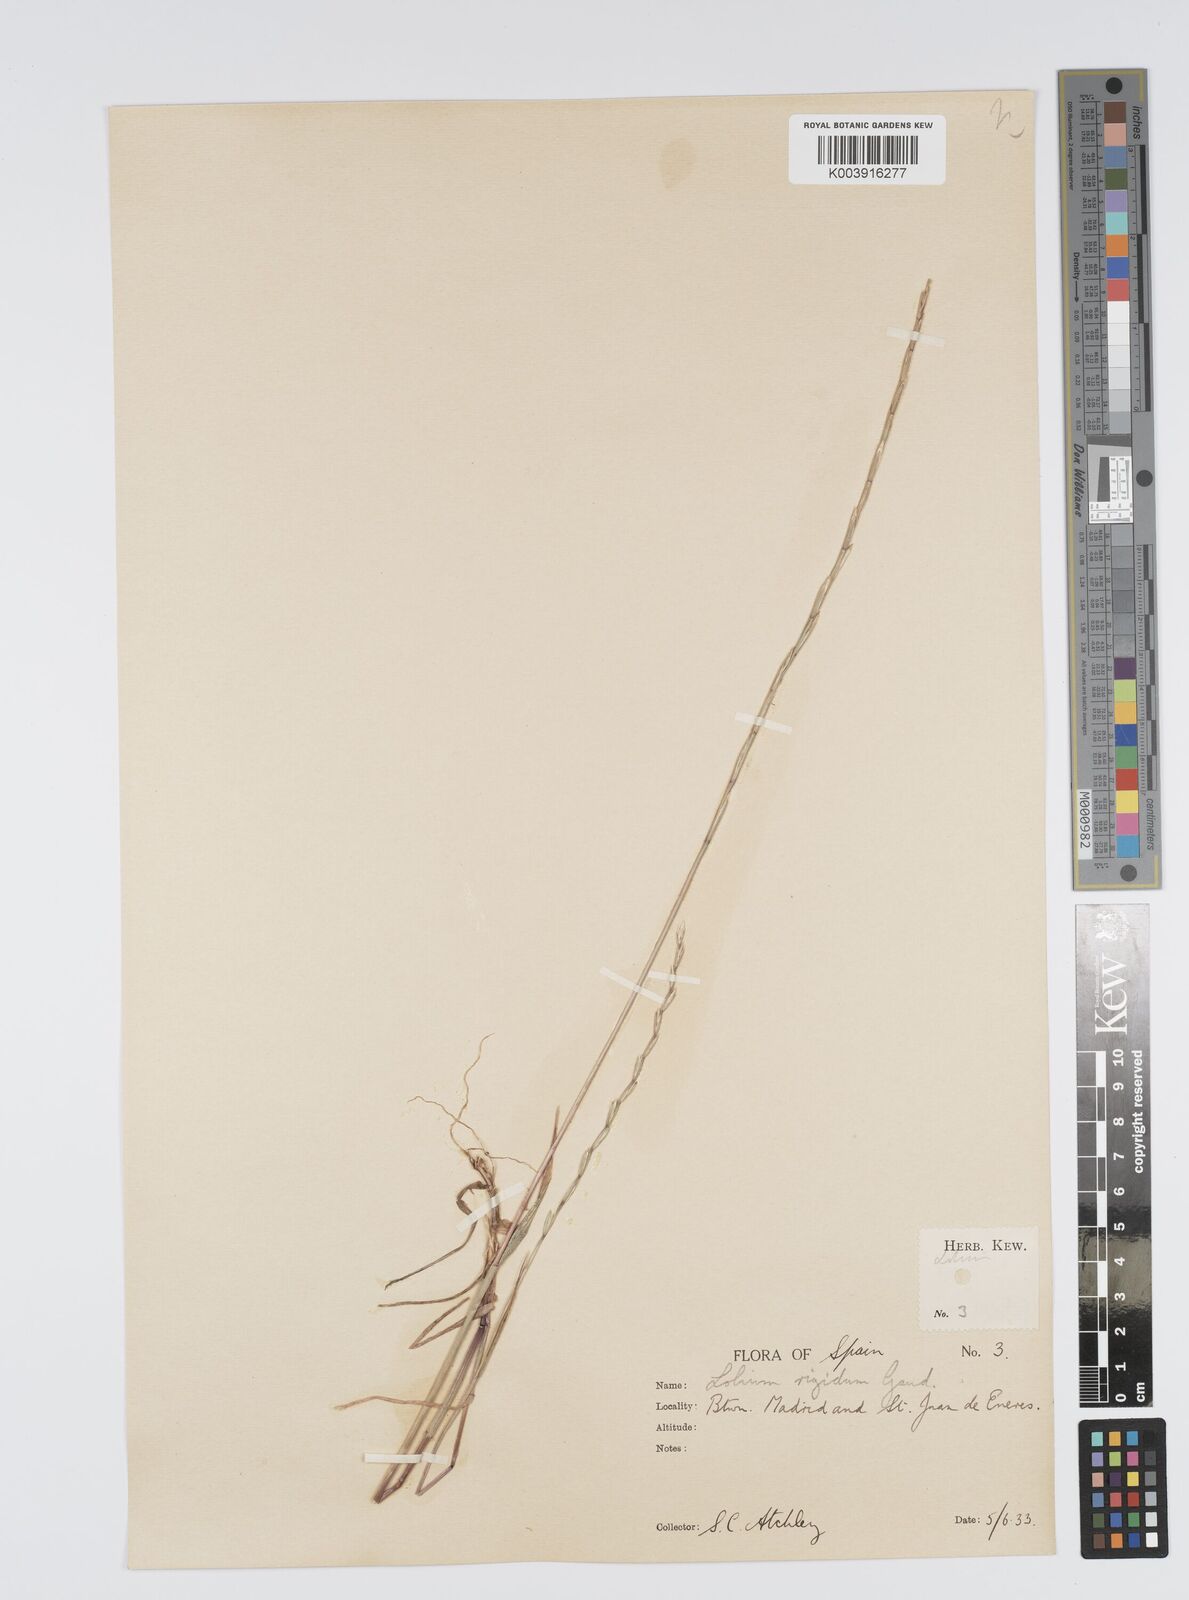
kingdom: Plantae
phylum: Tracheophyta
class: Liliopsida
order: Poales
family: Poaceae
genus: Lolium
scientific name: Lolium rigidum
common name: Wimmera ryegrass
